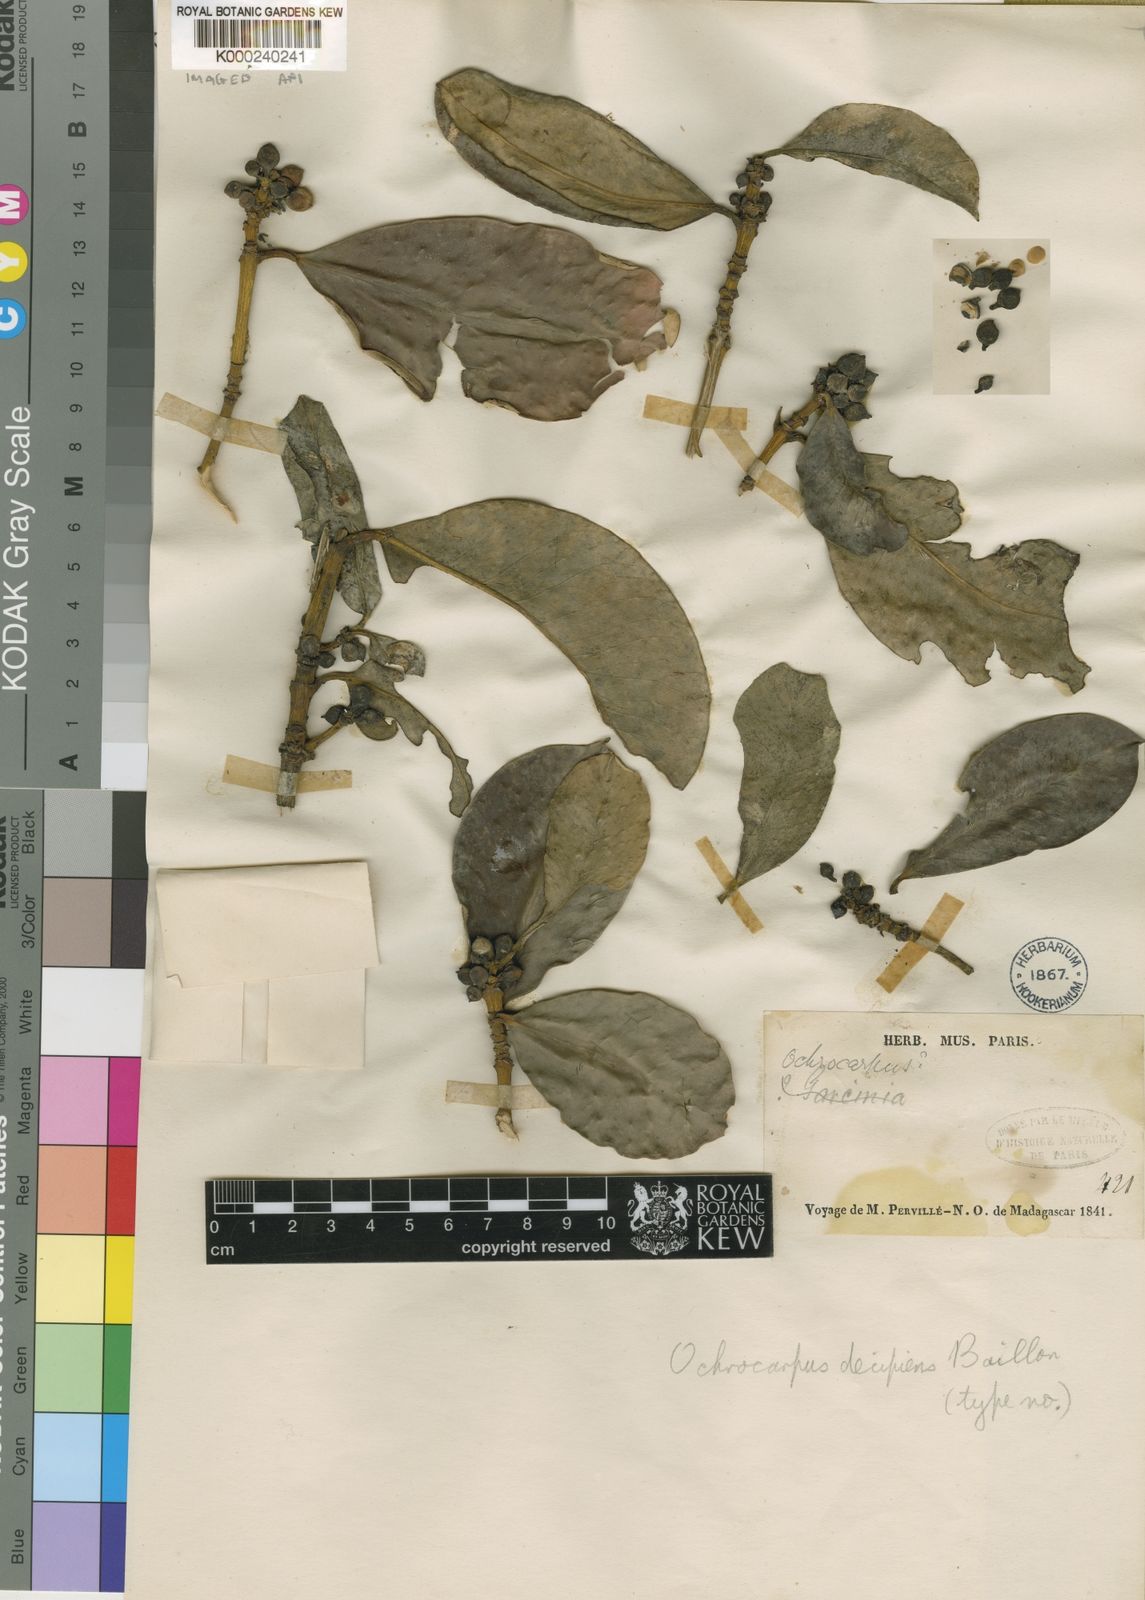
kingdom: Plantae
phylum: Tracheophyta
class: Magnoliopsida
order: Malpighiales
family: Clusiaceae
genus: Garcinia
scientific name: Garcinia decipiens
